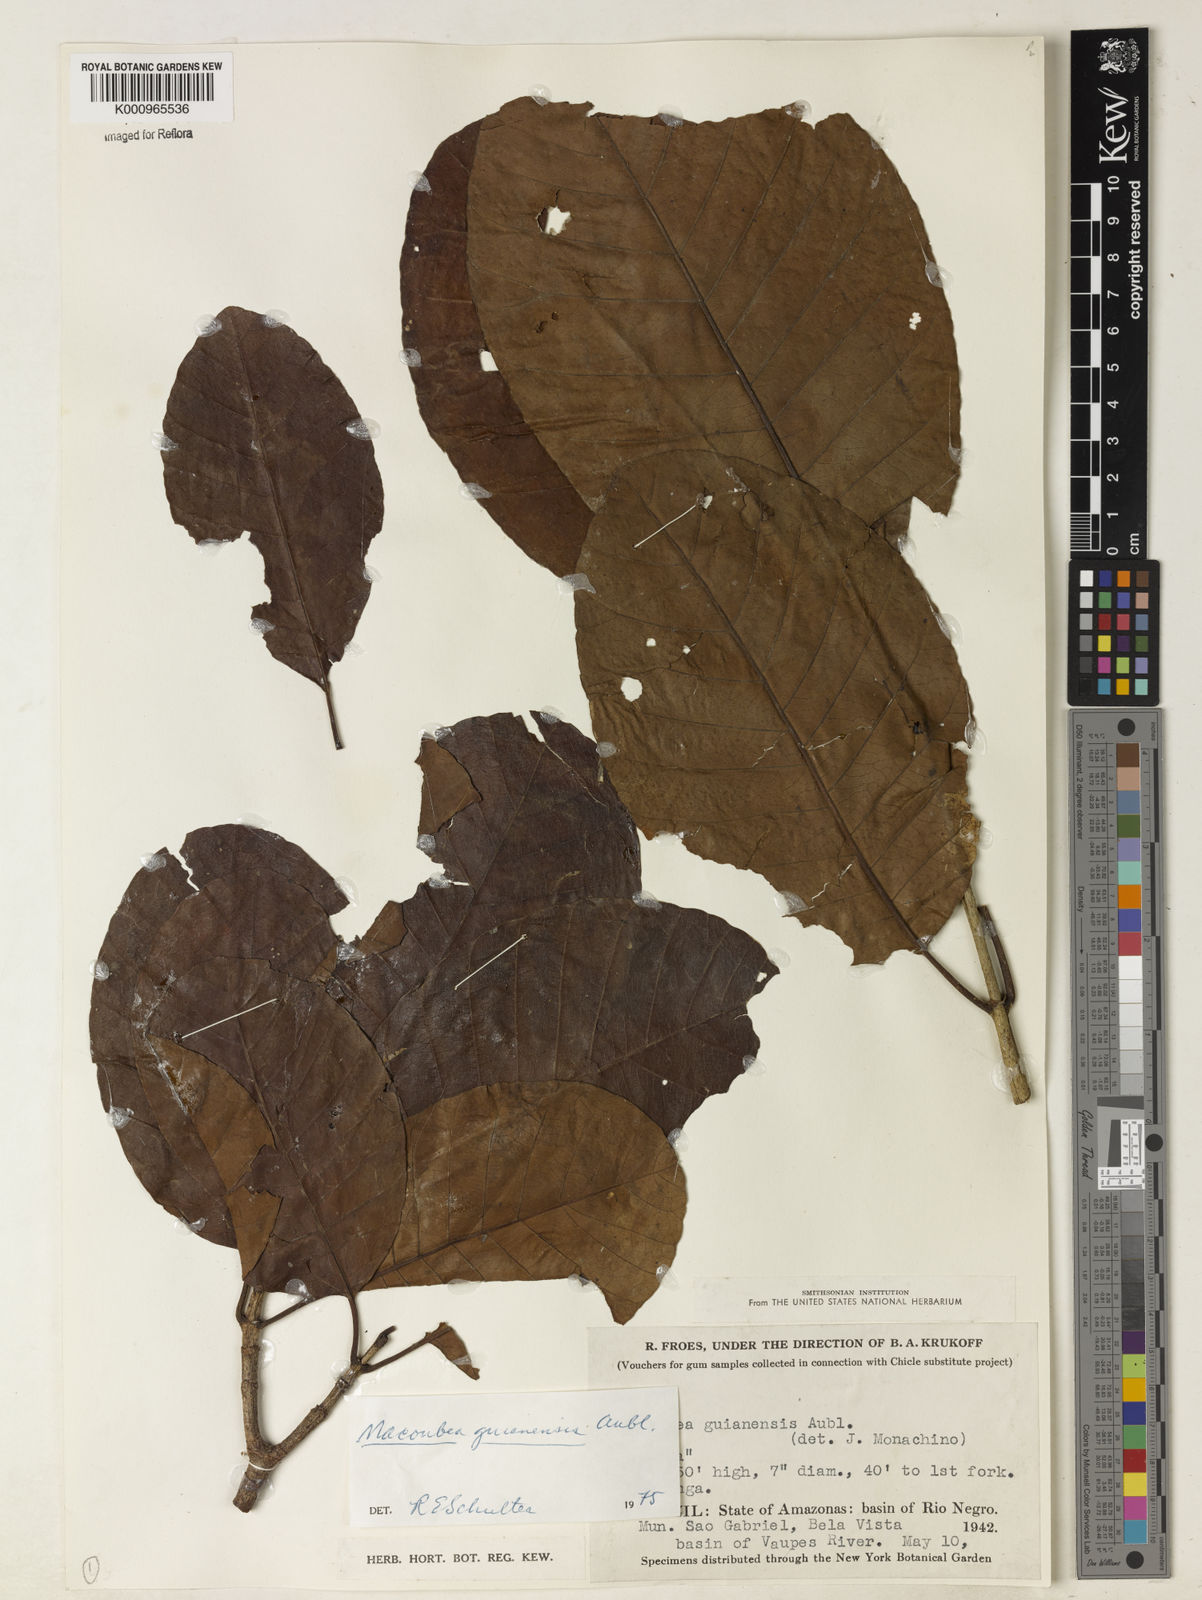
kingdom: Plantae
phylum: Tracheophyta
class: Magnoliopsida
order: Gentianales
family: Apocynaceae
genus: Macoubea
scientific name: Macoubea guianensis
